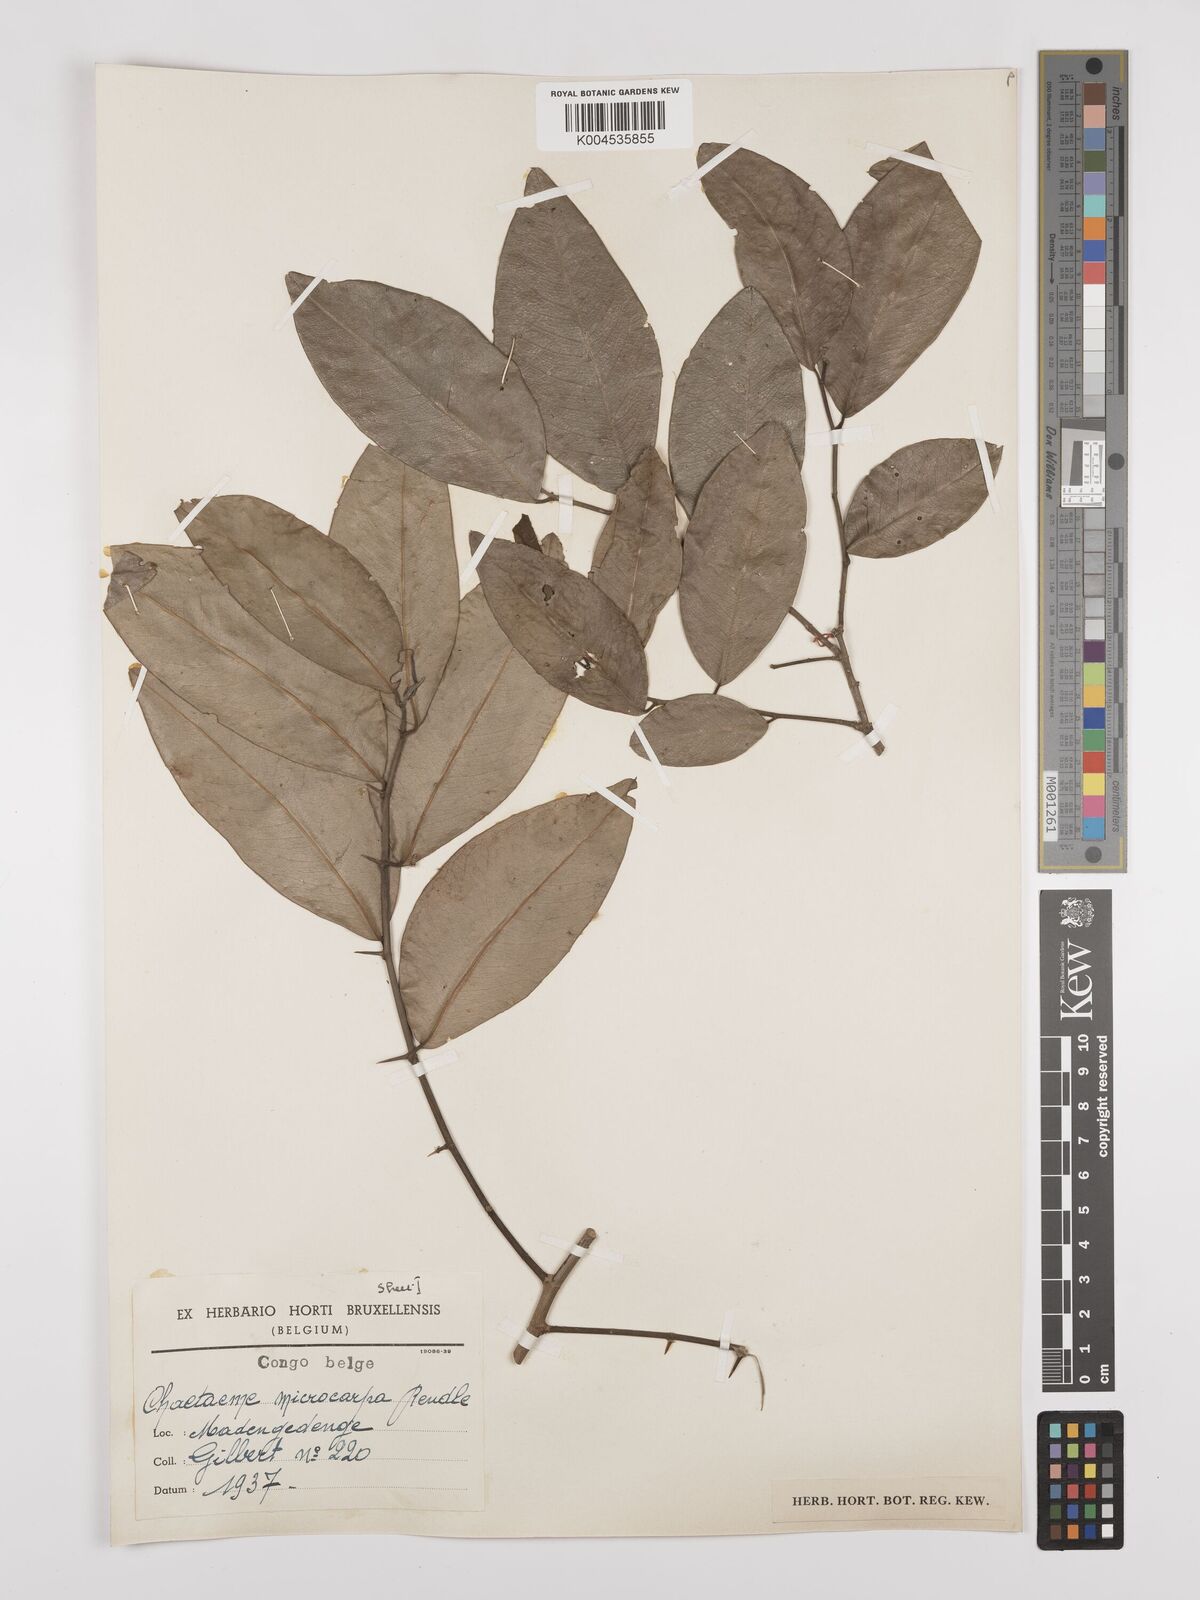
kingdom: Plantae
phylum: Tracheophyta
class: Magnoliopsida
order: Rosales
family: Cannabaceae
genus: Chaetachme
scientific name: Chaetachme aristata
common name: Thorny elm
